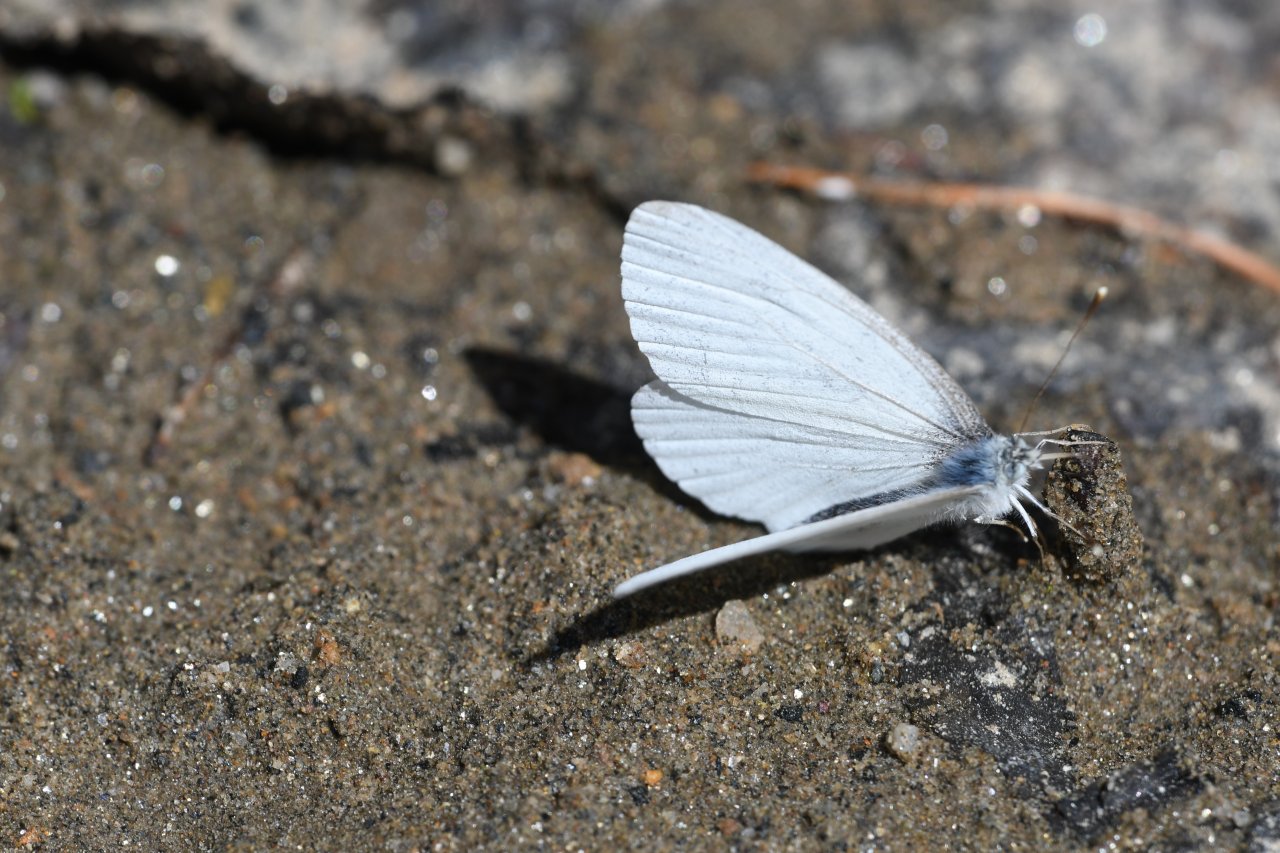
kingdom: Animalia
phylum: Arthropoda
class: Insecta
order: Lepidoptera
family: Pieridae
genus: Pieris
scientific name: Pieris virginiensis
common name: West Virginia White
